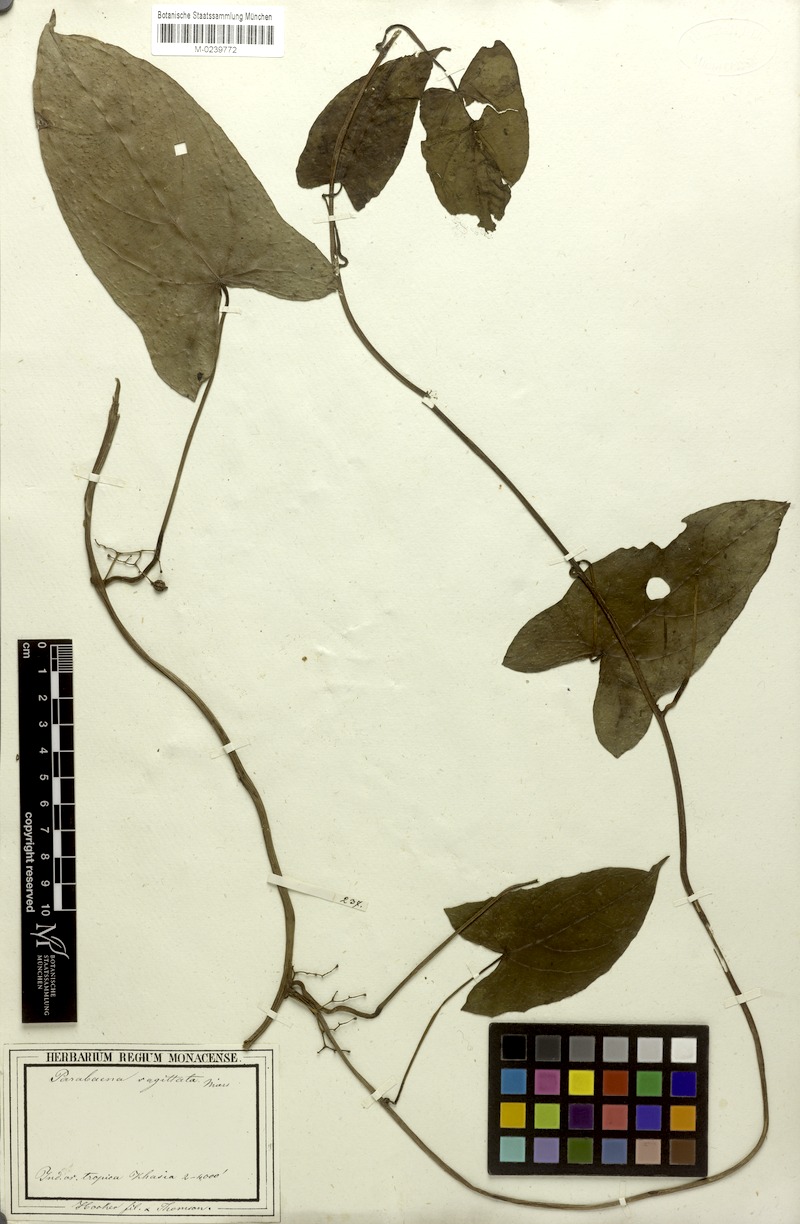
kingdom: Plantae
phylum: Tracheophyta
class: Magnoliopsida
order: Ranunculales
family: Menispermaceae
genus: Parabaena
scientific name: Parabaena sagittata
